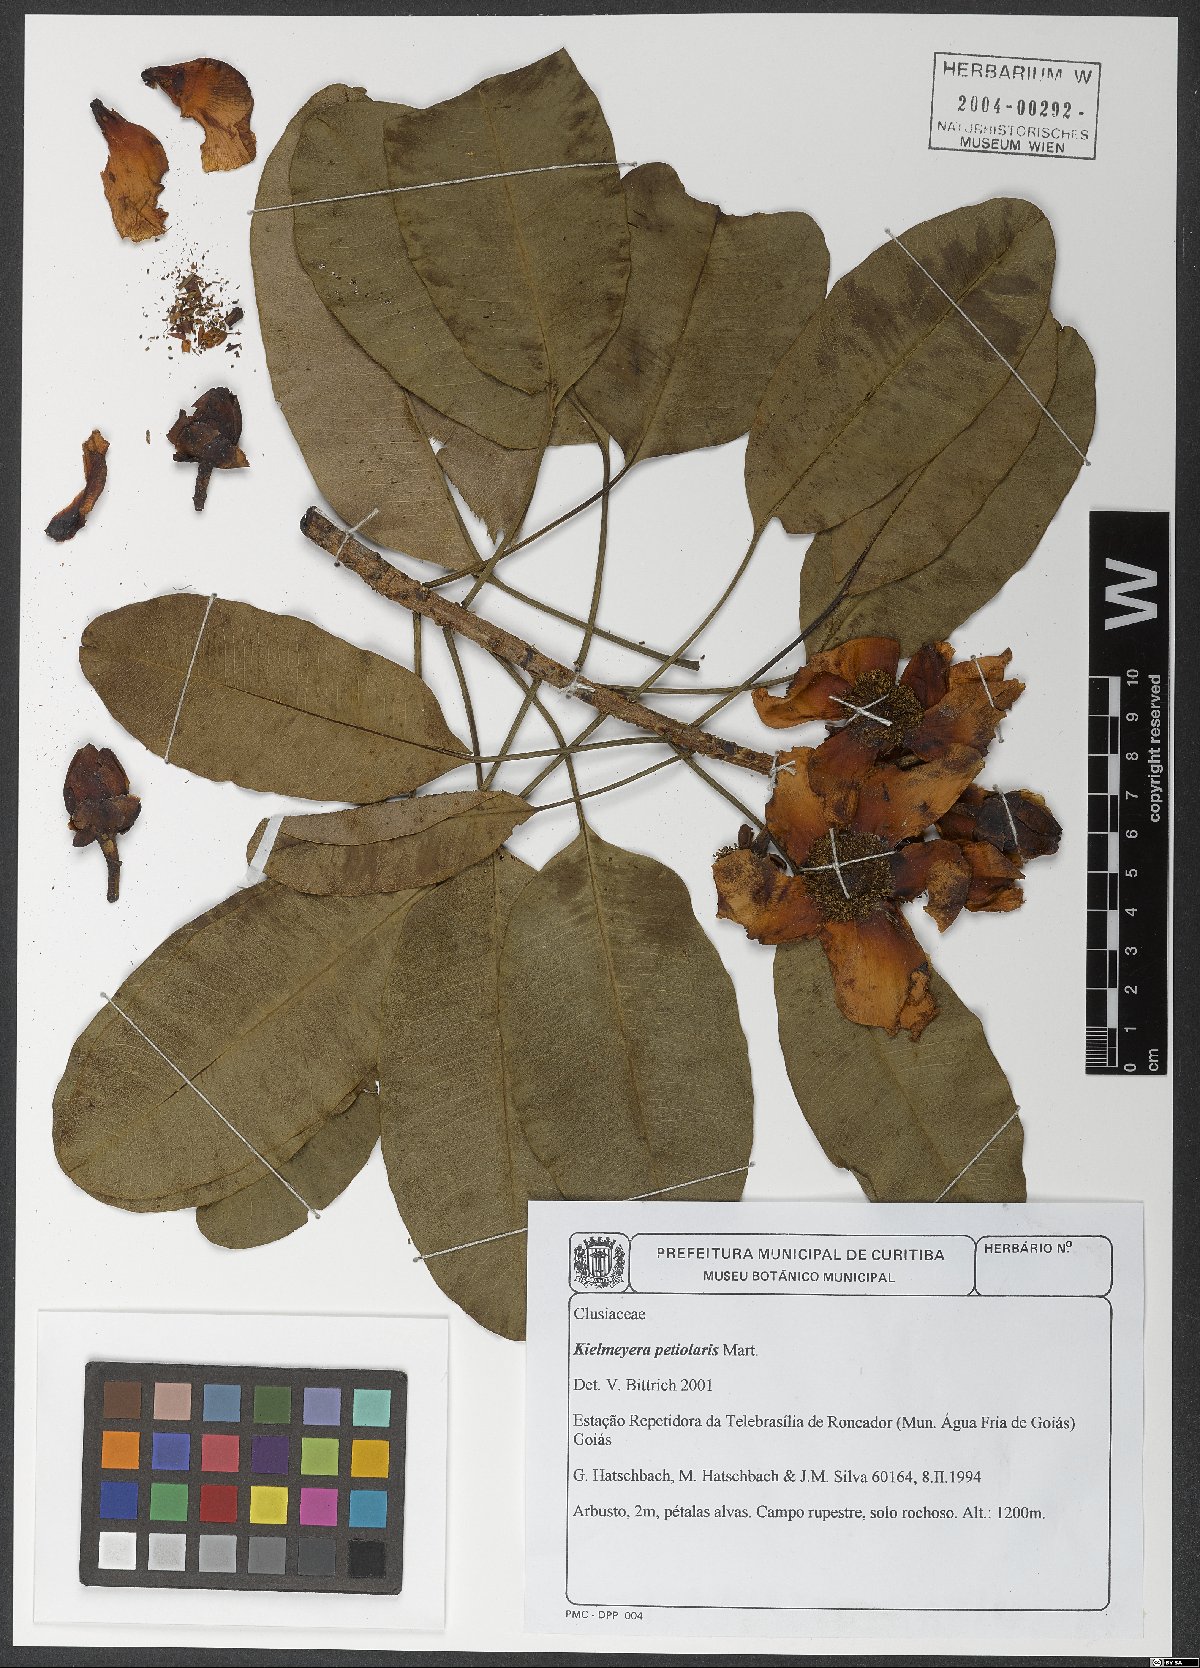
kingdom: Plantae
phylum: Tracheophyta
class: Magnoliopsida
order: Malpighiales
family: Calophyllaceae
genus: Kielmeyera
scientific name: Kielmeyera petiolaris
